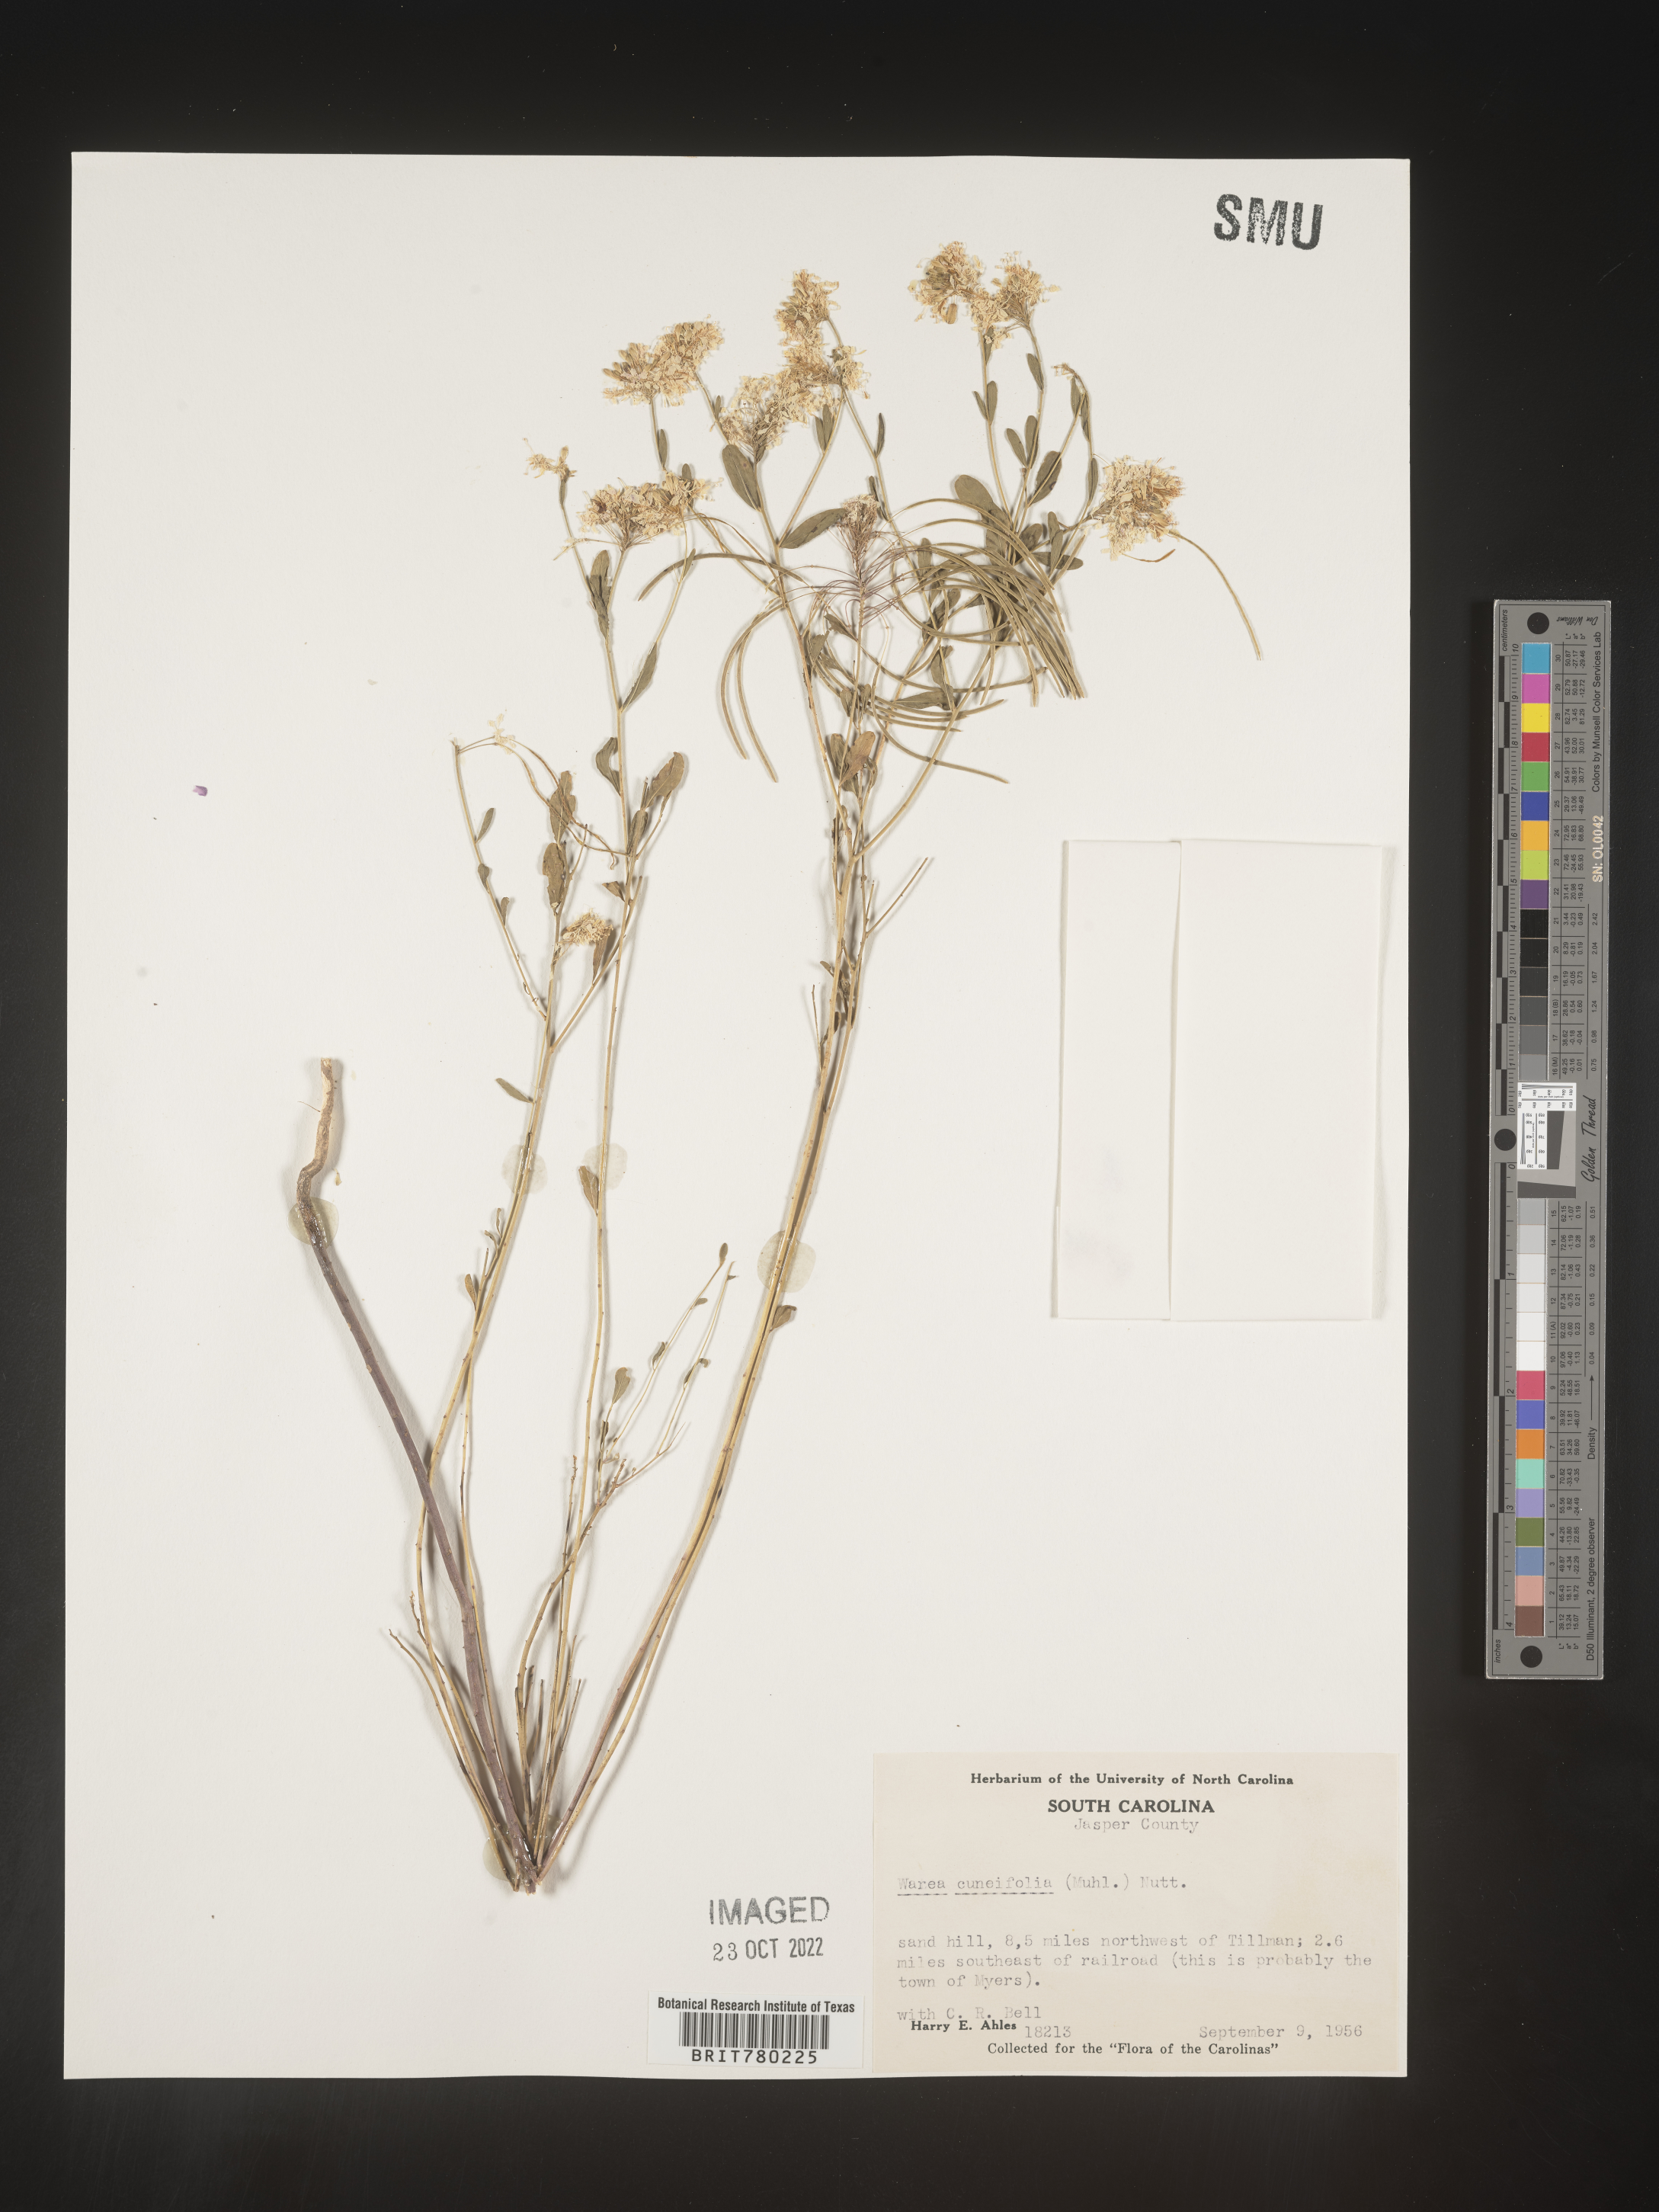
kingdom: Plantae
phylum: Tracheophyta
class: Magnoliopsida
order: Brassicales
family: Brassicaceae
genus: Warea
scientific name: Warea
